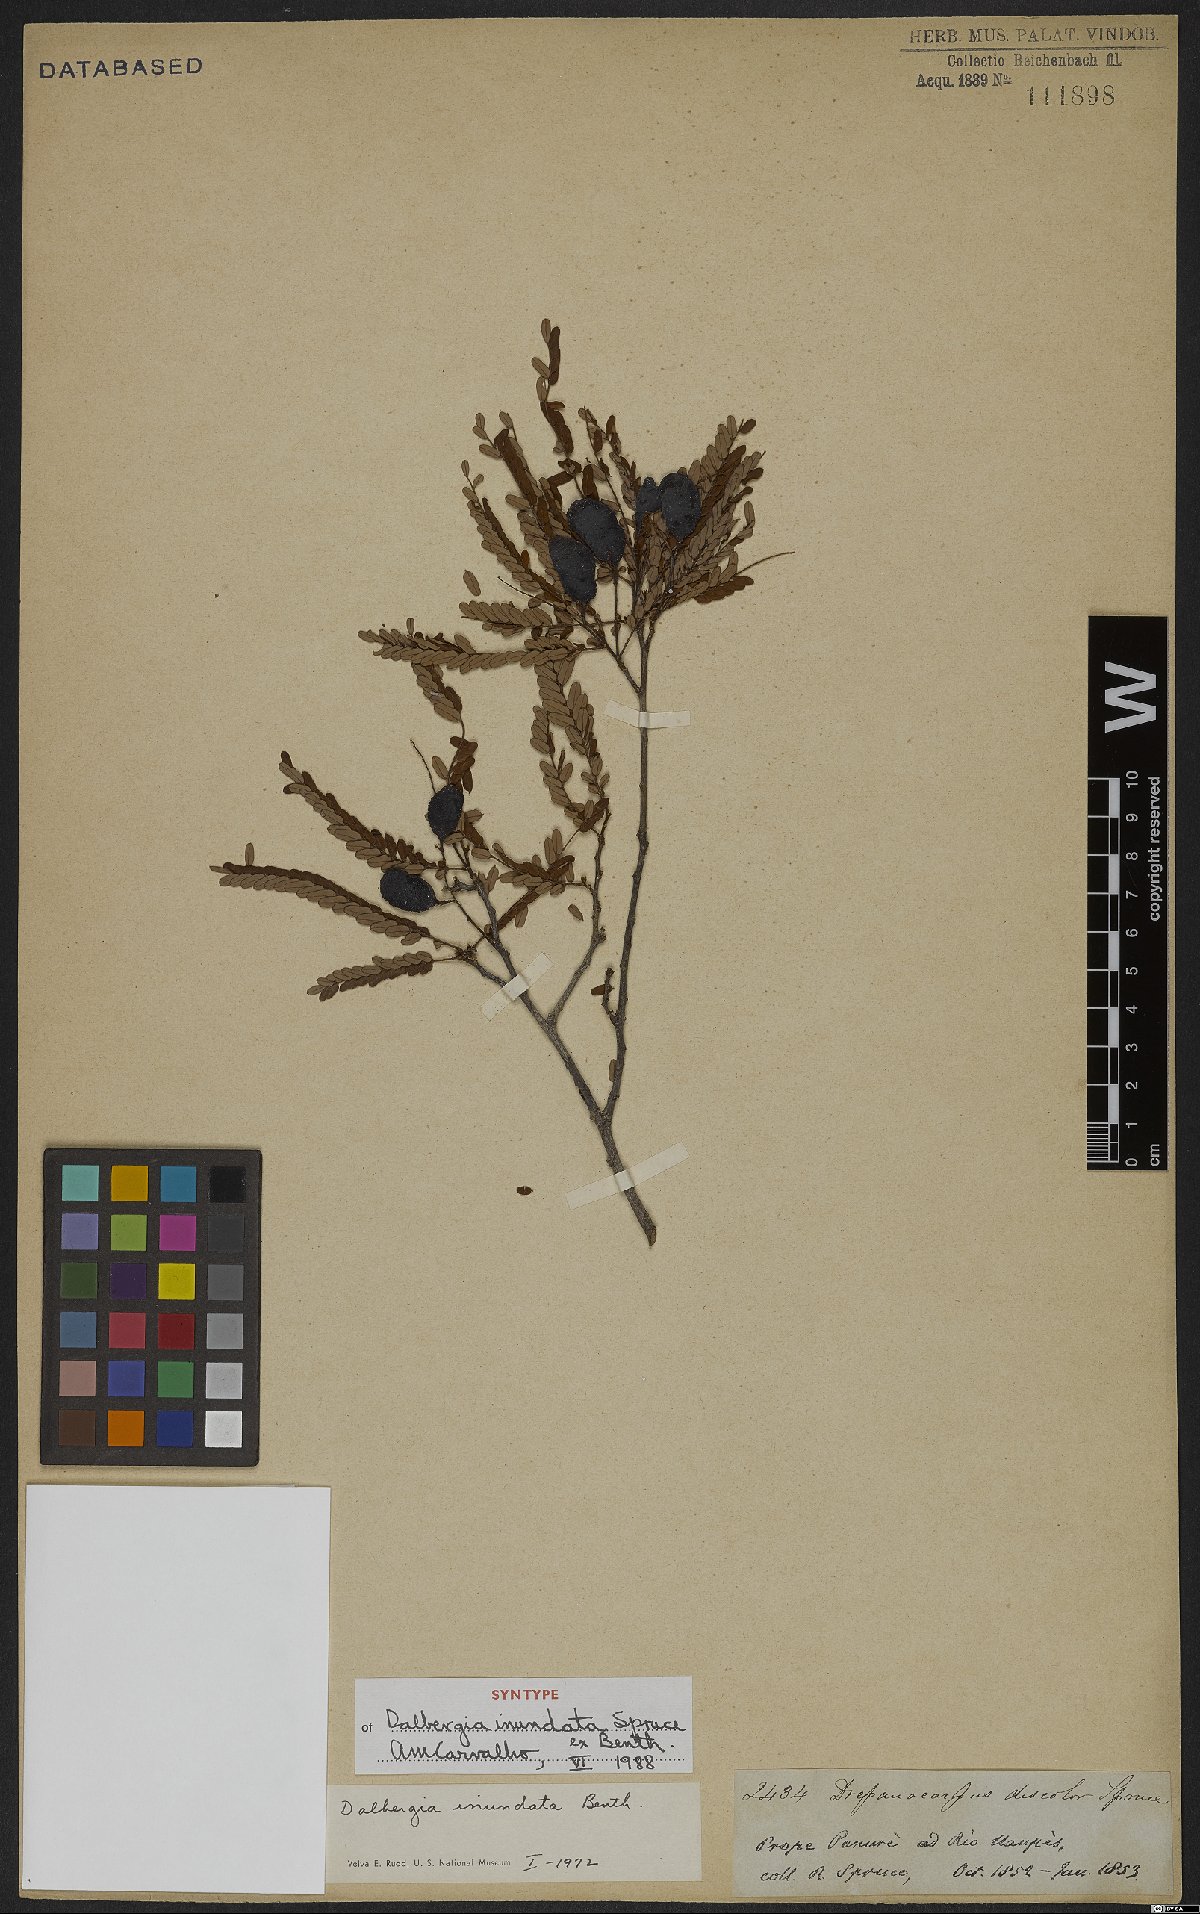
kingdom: Plantae
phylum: Tracheophyta
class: Magnoliopsida
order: Fabales
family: Fabaceae
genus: Dalbergia
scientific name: Dalbergia inundata
